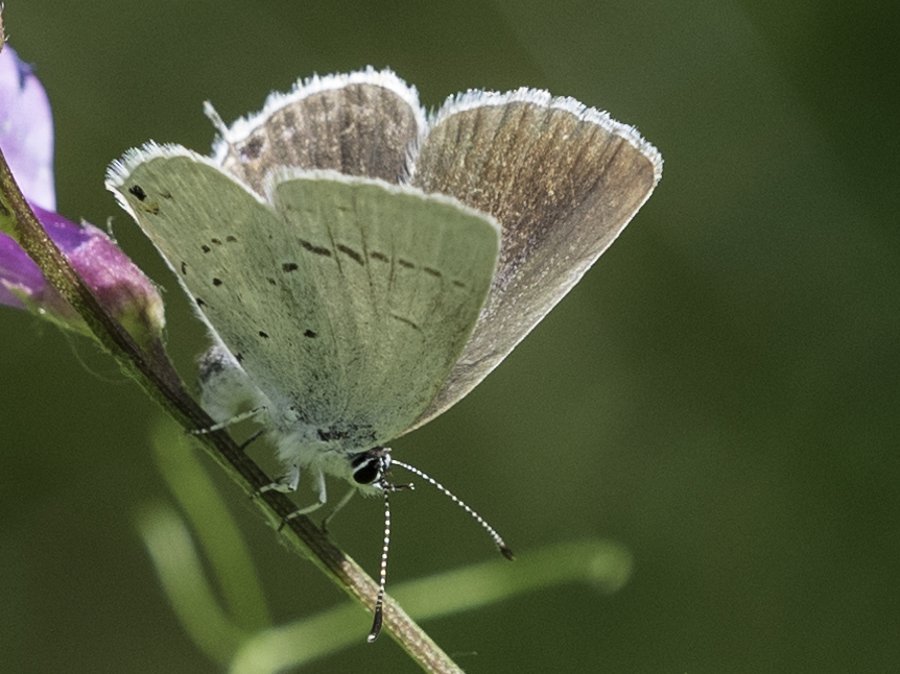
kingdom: Animalia
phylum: Arthropoda
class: Insecta
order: Lepidoptera
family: Lycaenidae
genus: Elkalyce
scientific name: Elkalyce amyntula
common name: Western Tailed-Blue
